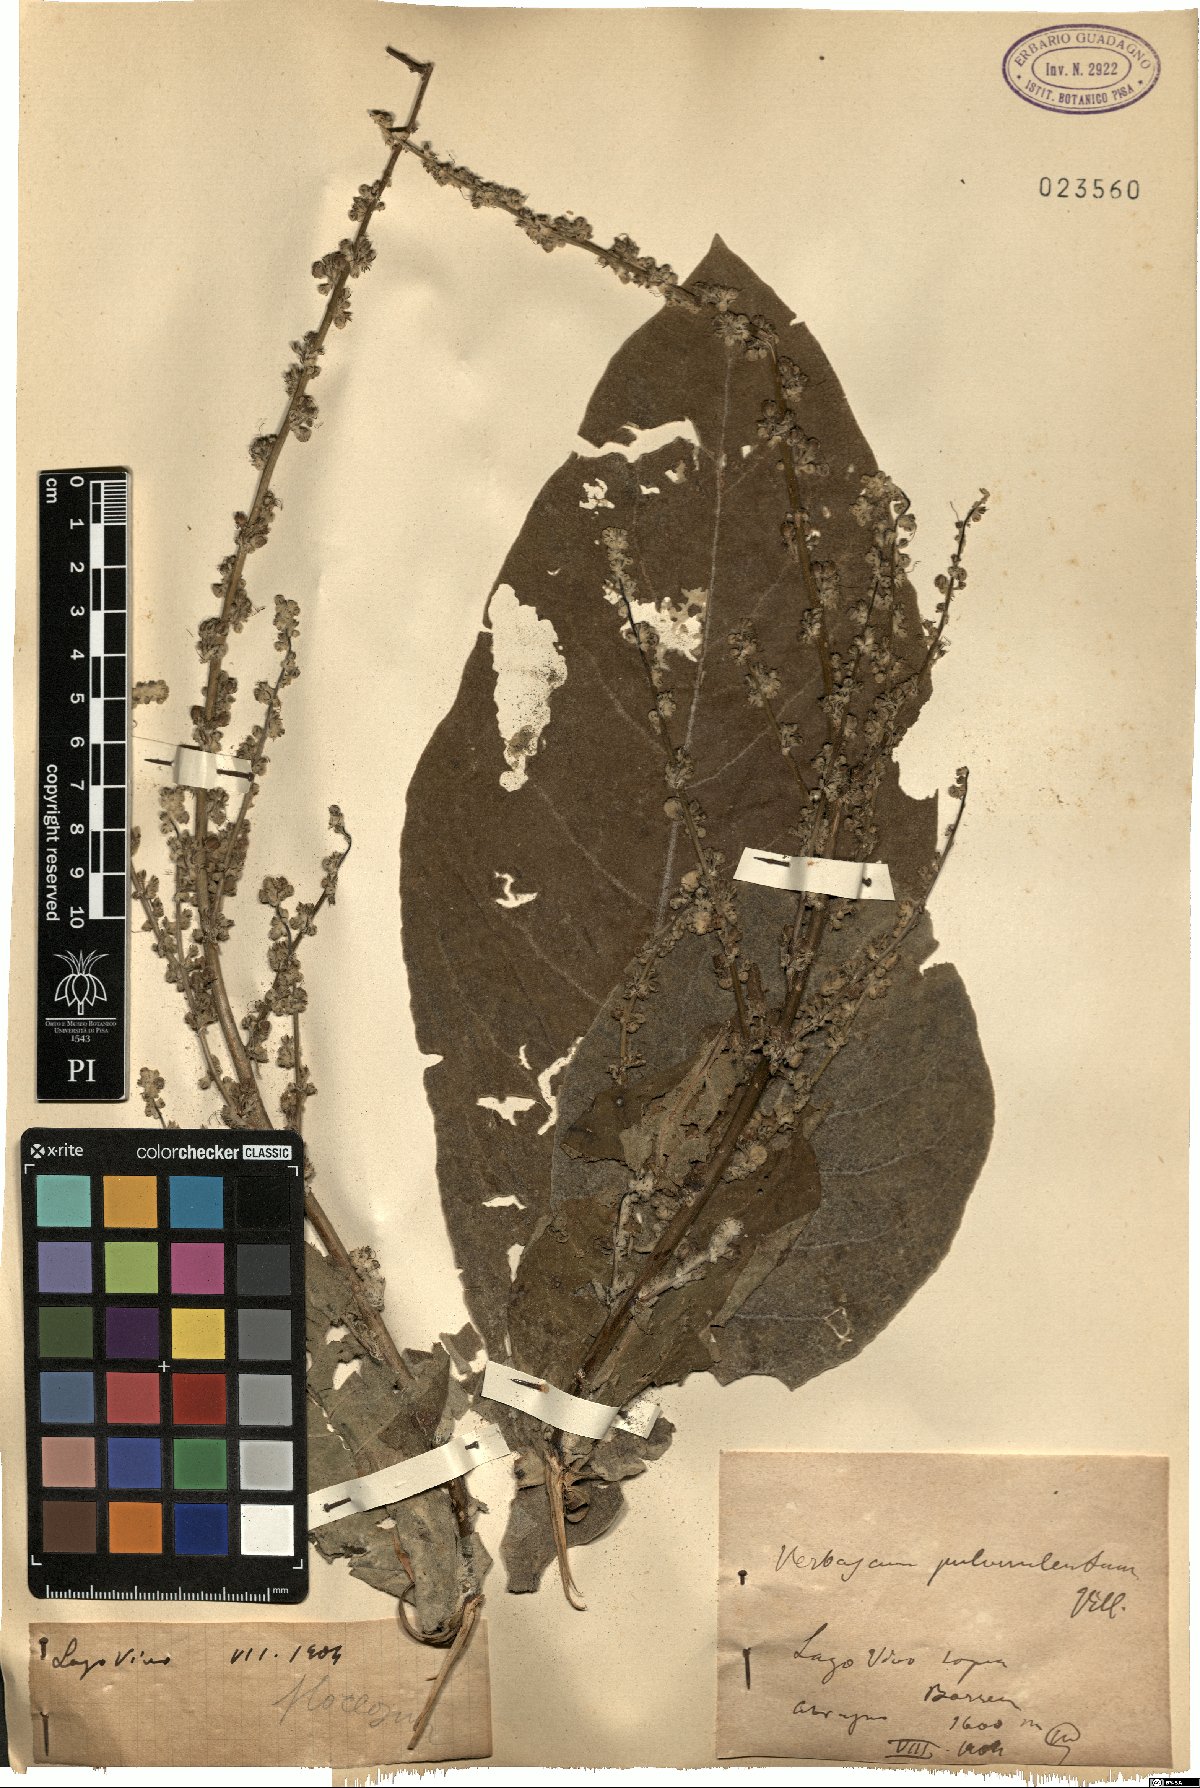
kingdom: Plantae
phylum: Tracheophyta
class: Magnoliopsida
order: Lamiales
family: Scrophulariaceae
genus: Verbascum
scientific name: Verbascum pulverulentum
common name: Broad-leaf mullein
